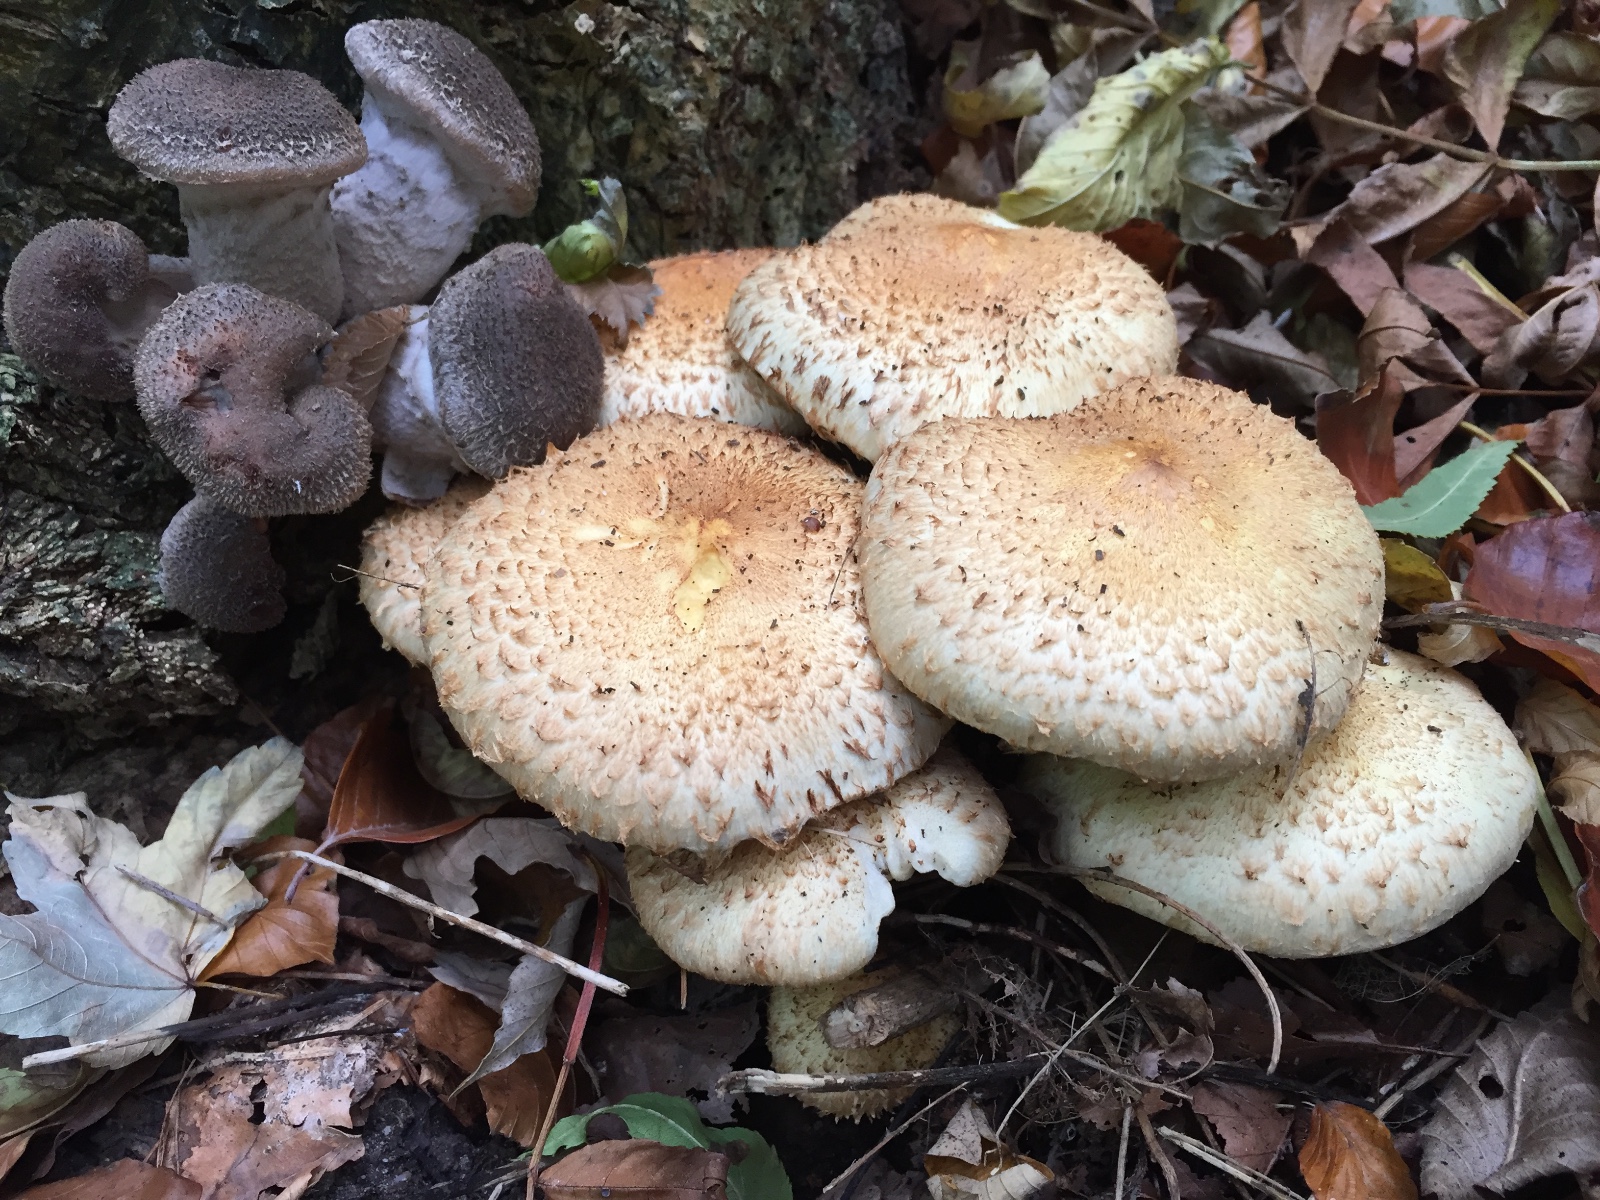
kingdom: Fungi
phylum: Basidiomycota
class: Agaricomycetes
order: Agaricales
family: Strophariaceae
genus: Pholiota
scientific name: Pholiota squarrosa
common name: krumskællet skælhat
